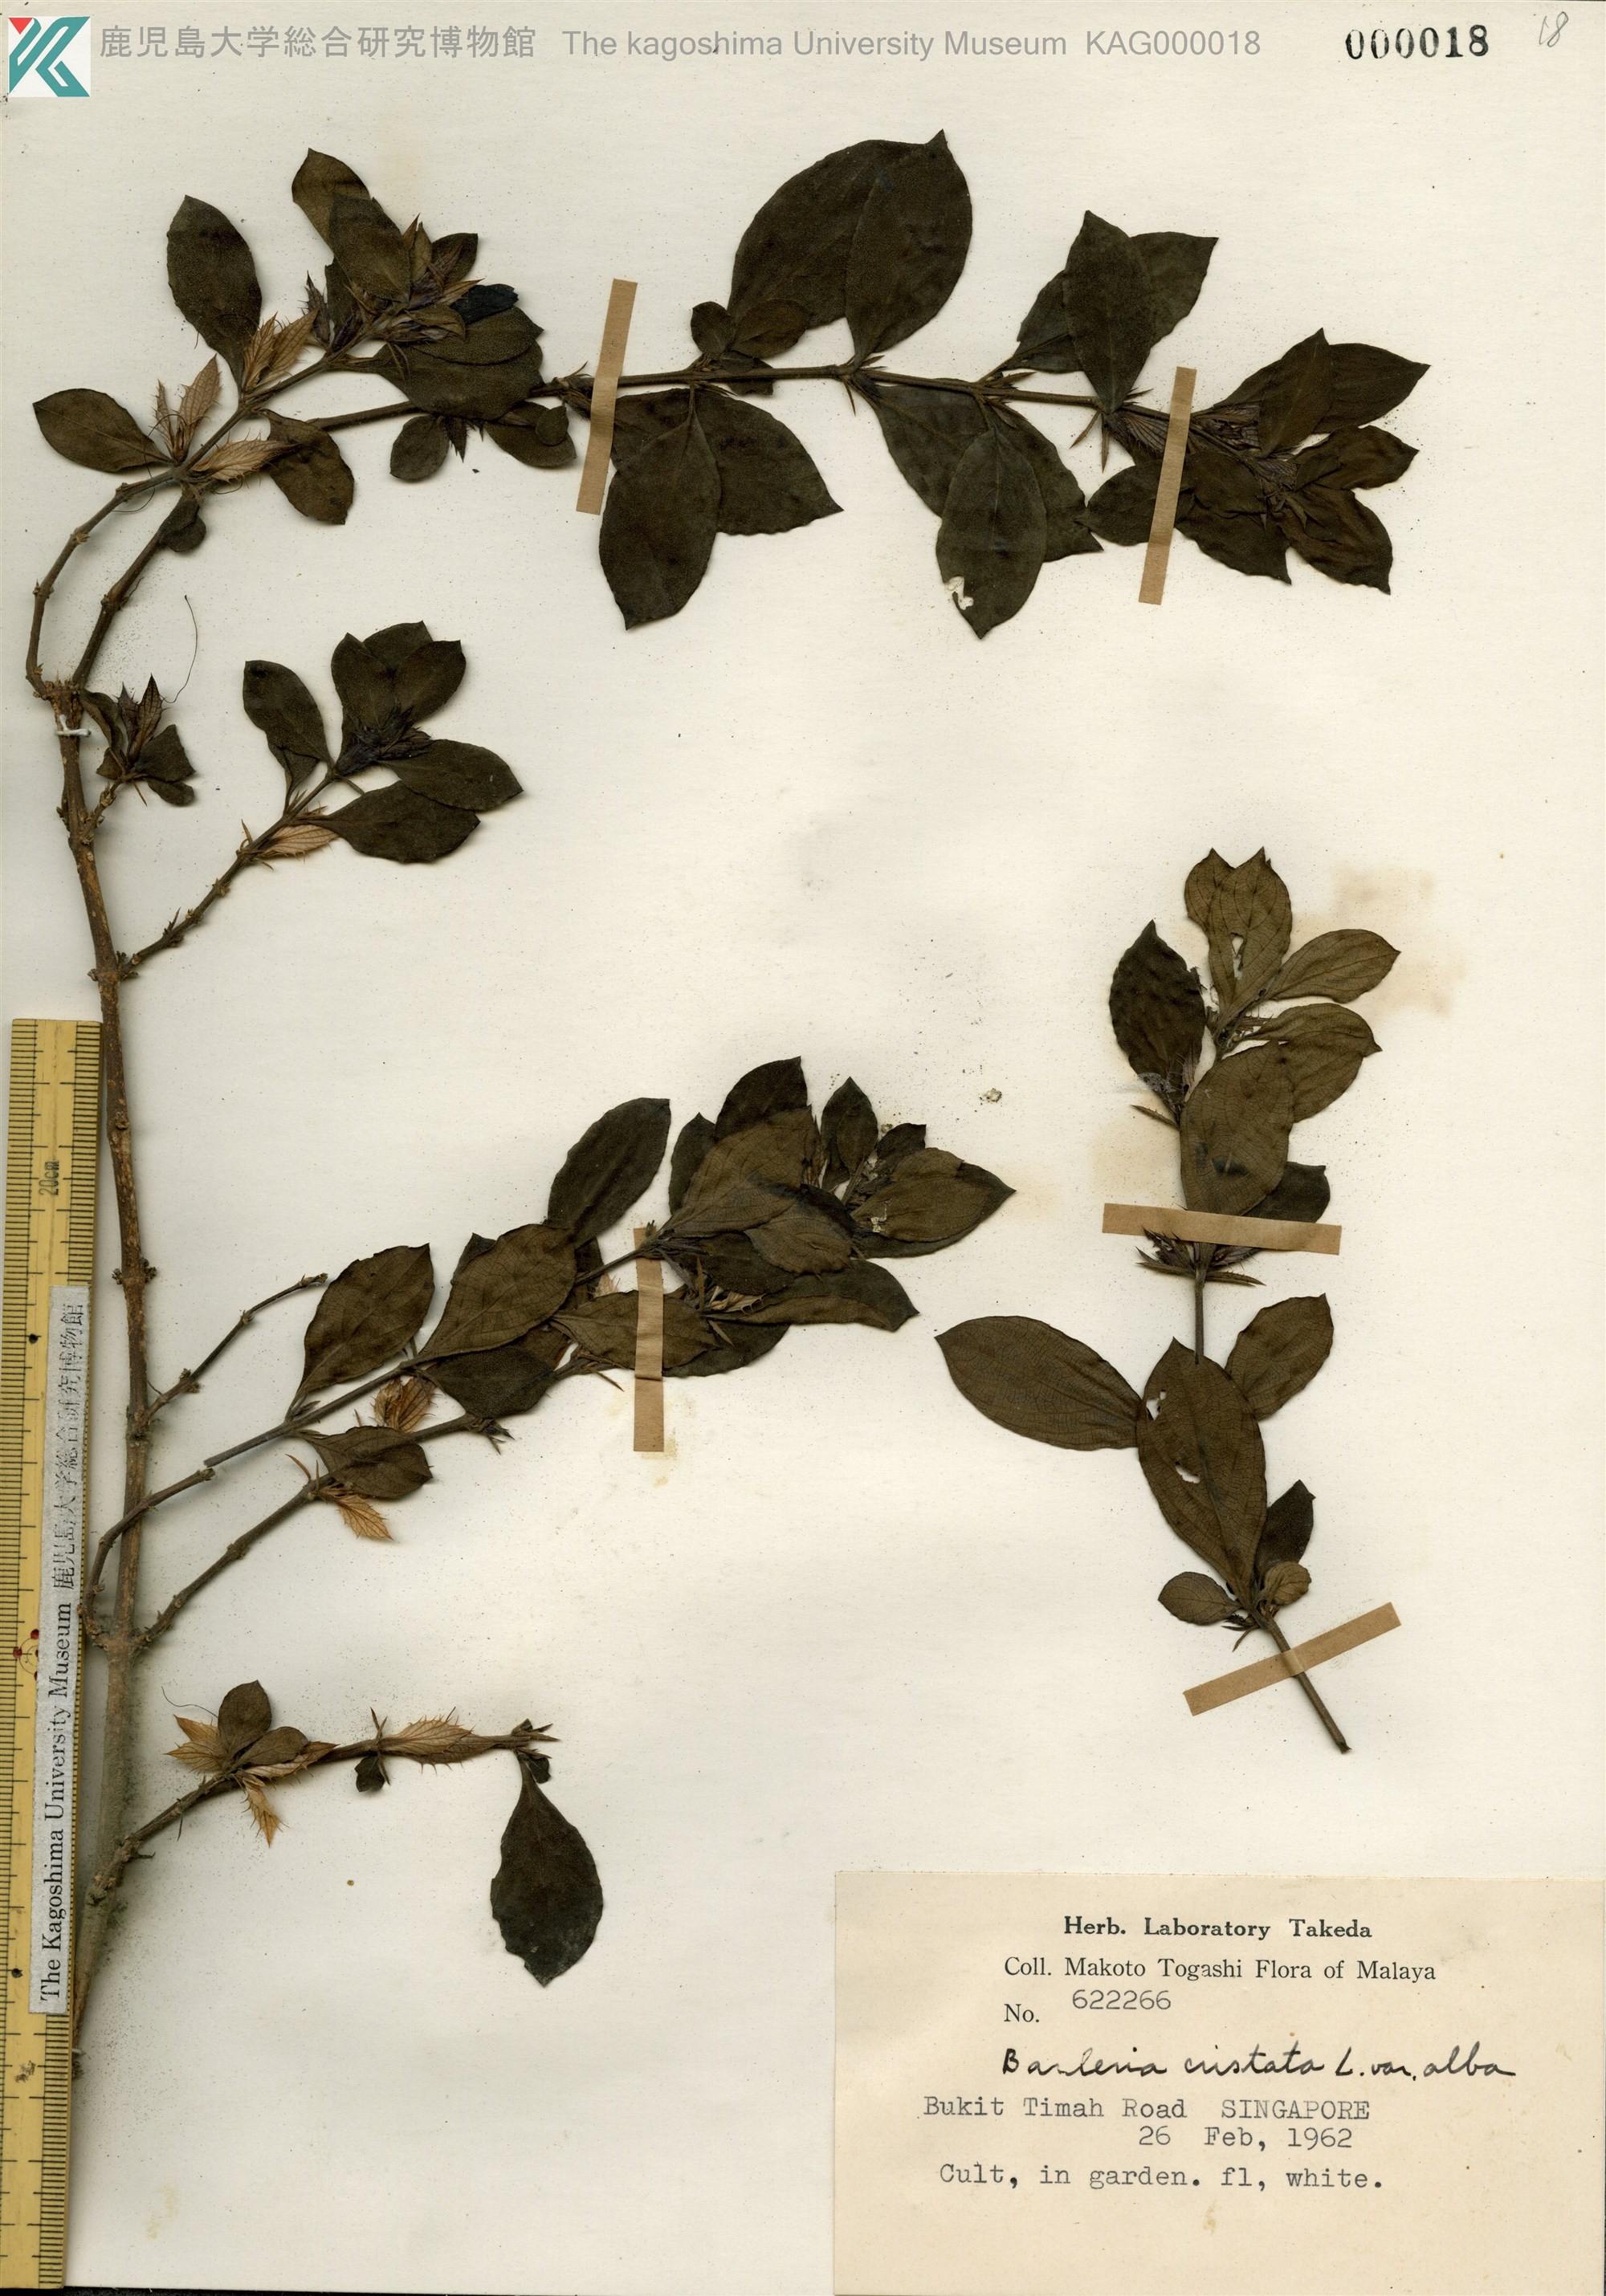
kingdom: Plantae
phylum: Tracheophyta
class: Magnoliopsida
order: Lamiales
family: Acanthaceae
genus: Barleria
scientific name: Barleria cristata
